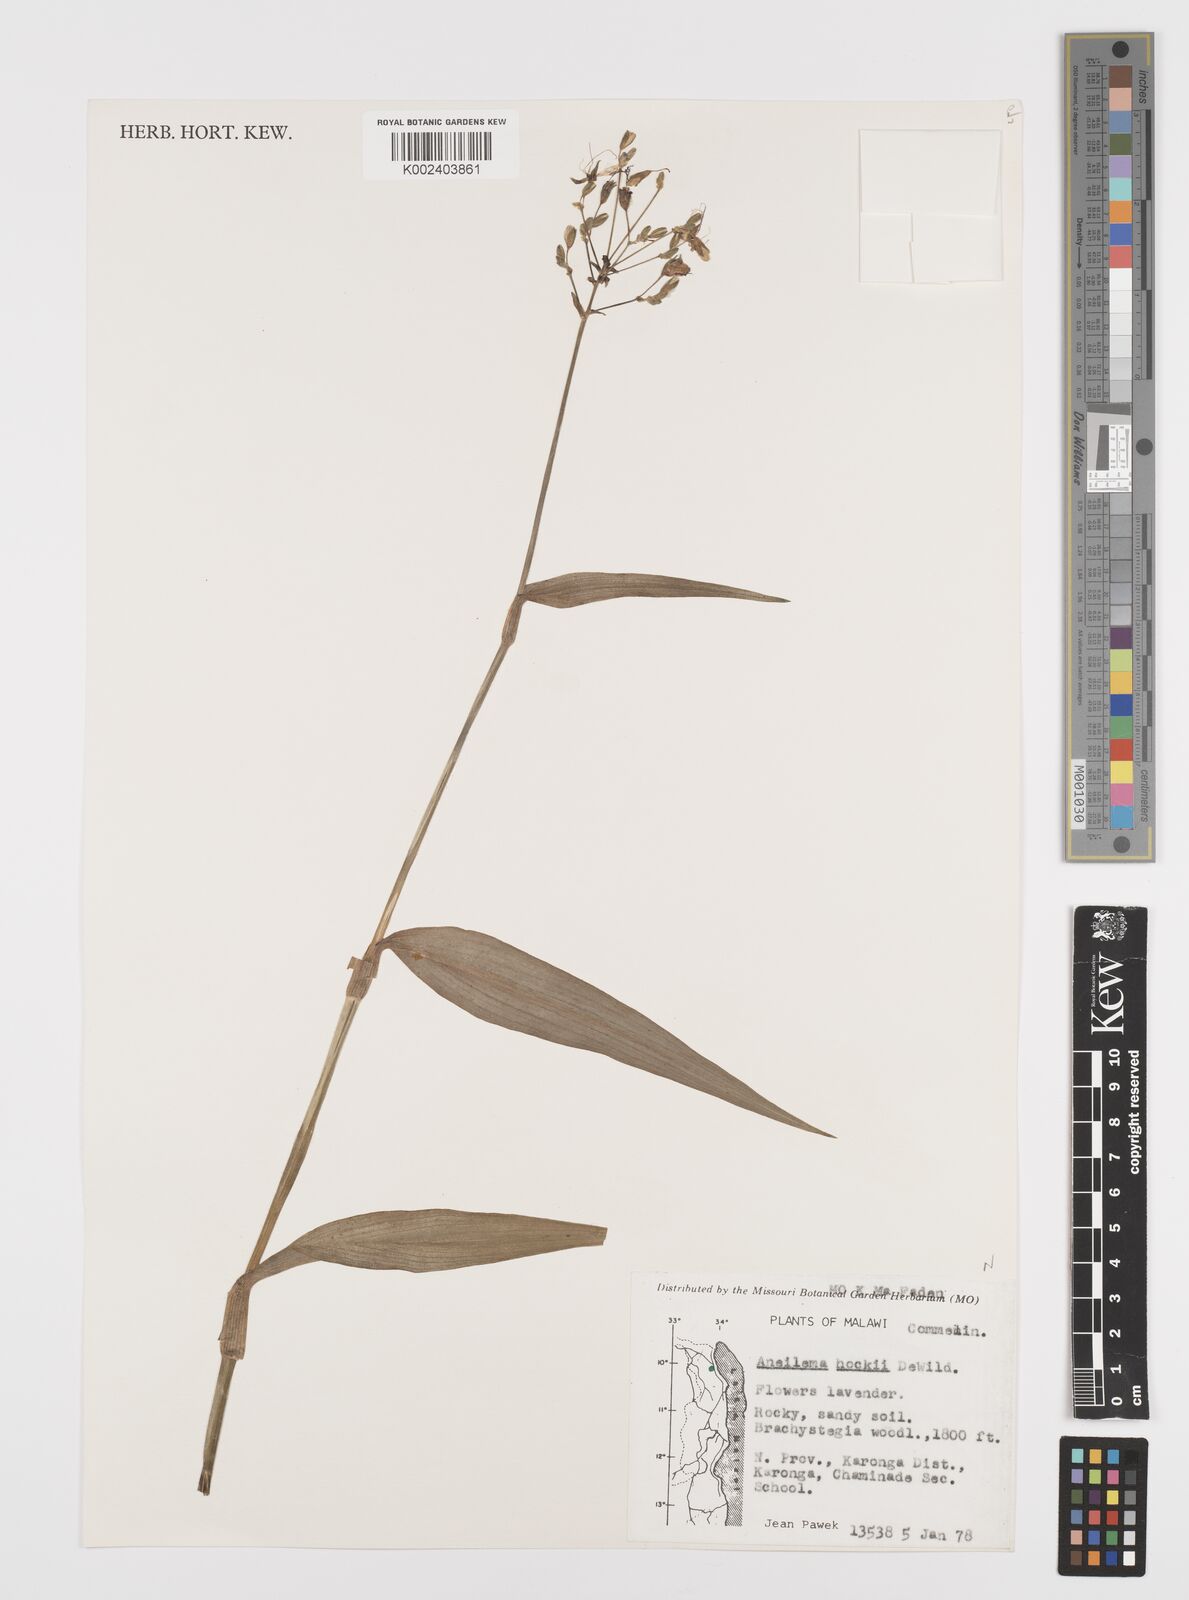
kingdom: Plantae
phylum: Tracheophyta
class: Liliopsida
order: Commelinales
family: Commelinaceae
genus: Aneilema
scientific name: Aneilema hockii
